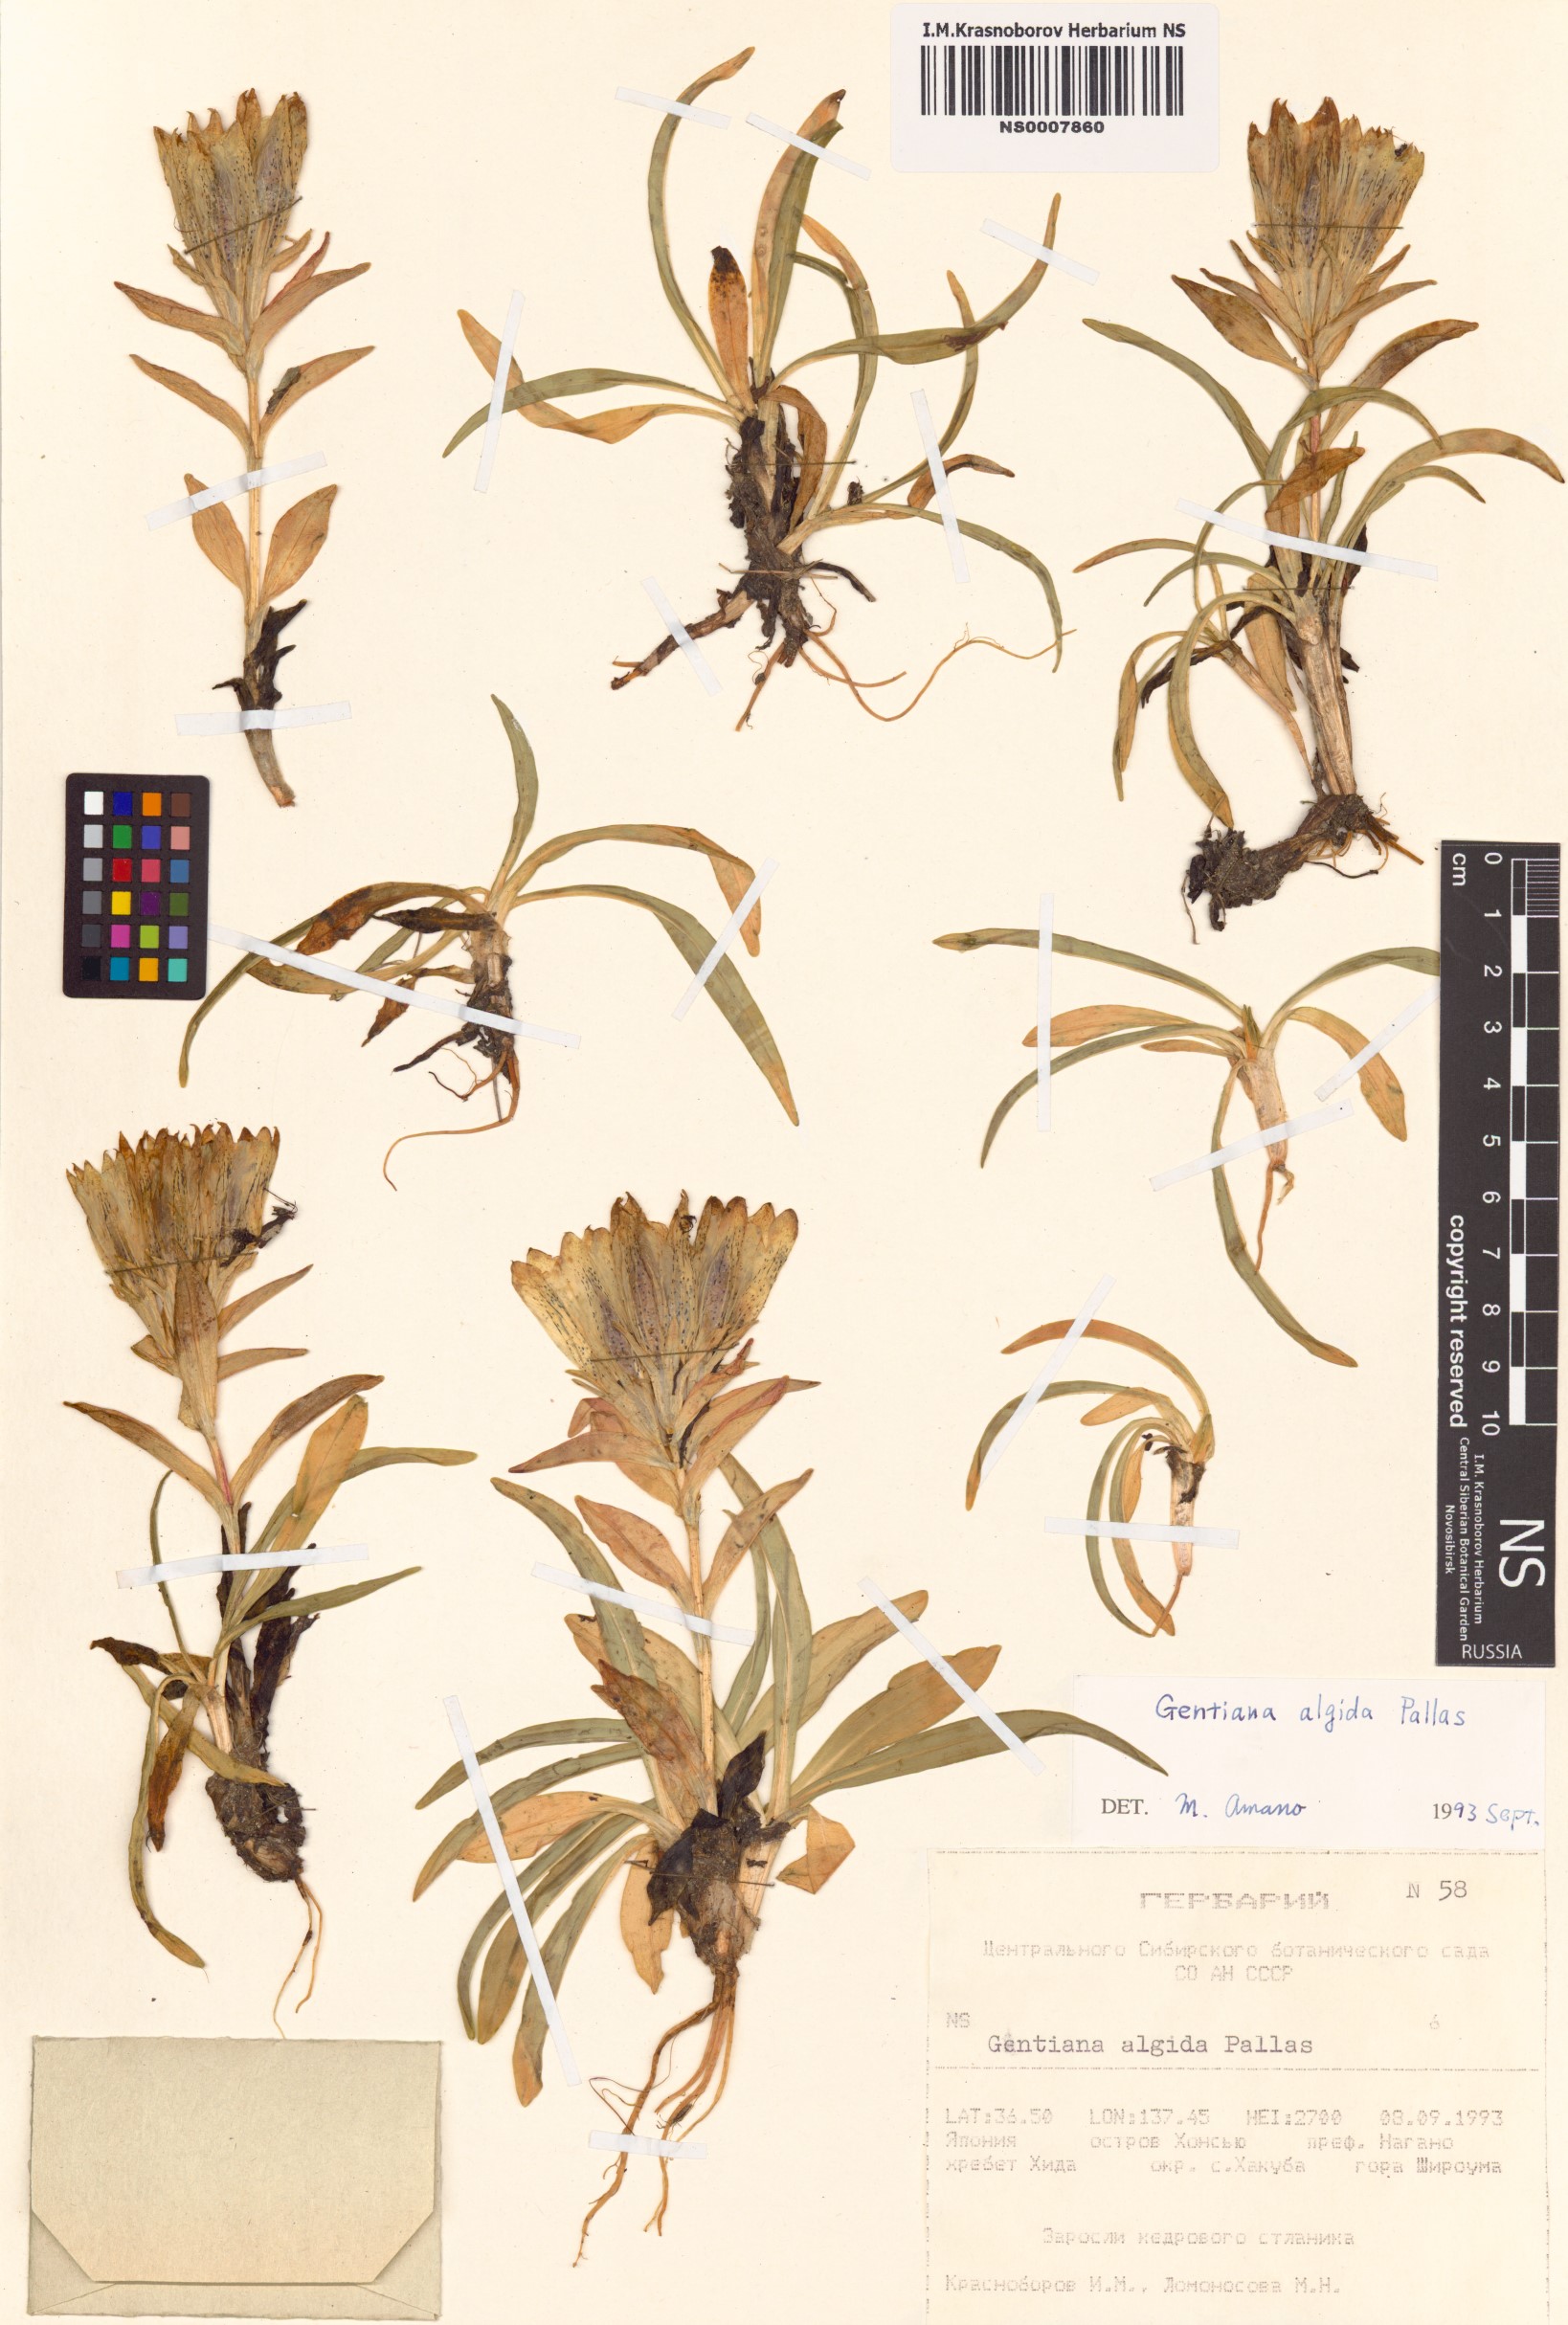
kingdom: Plantae
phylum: Tracheophyta
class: Magnoliopsida
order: Gentianales
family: Gentianaceae
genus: Gentiana
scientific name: Gentiana algida
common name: Arctic gentian
